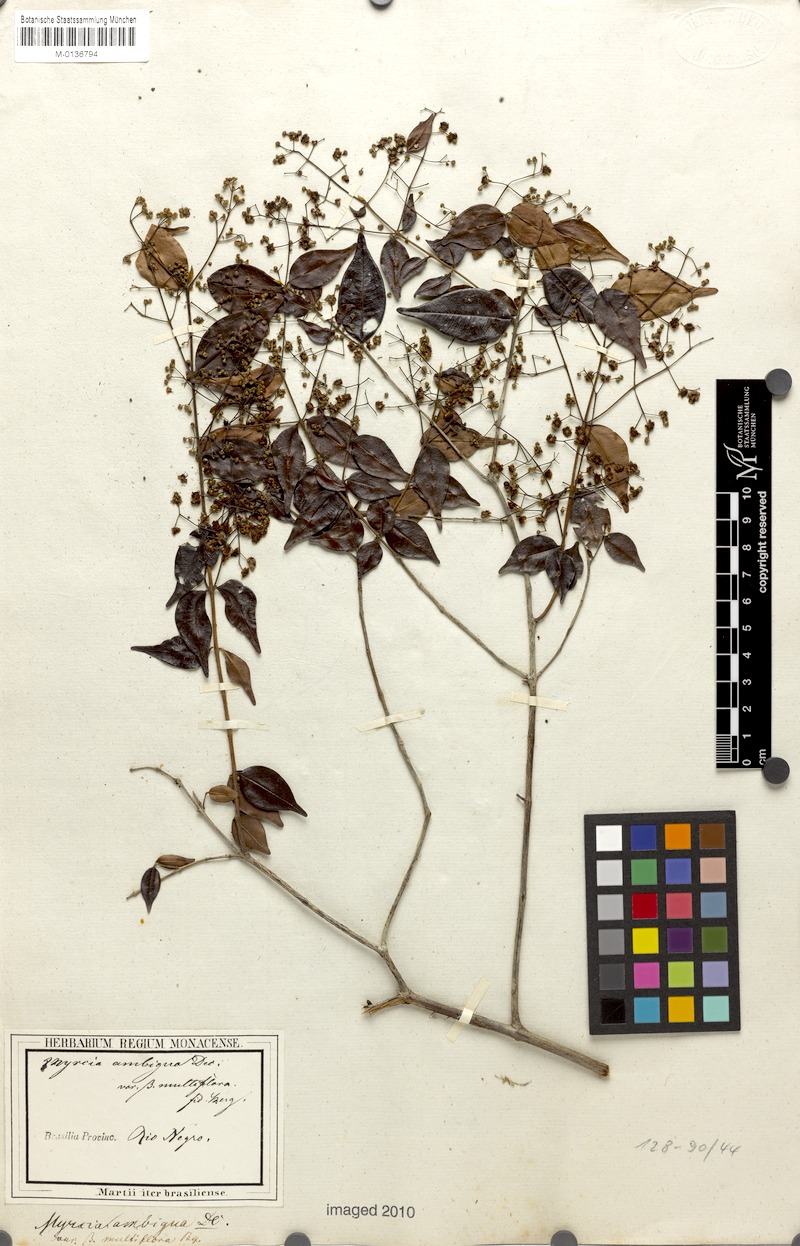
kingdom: Plantae
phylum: Tracheophyta
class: Magnoliopsida
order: Myrtales
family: Myrtaceae
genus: Myrcia
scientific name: Myrcia sylvatica
